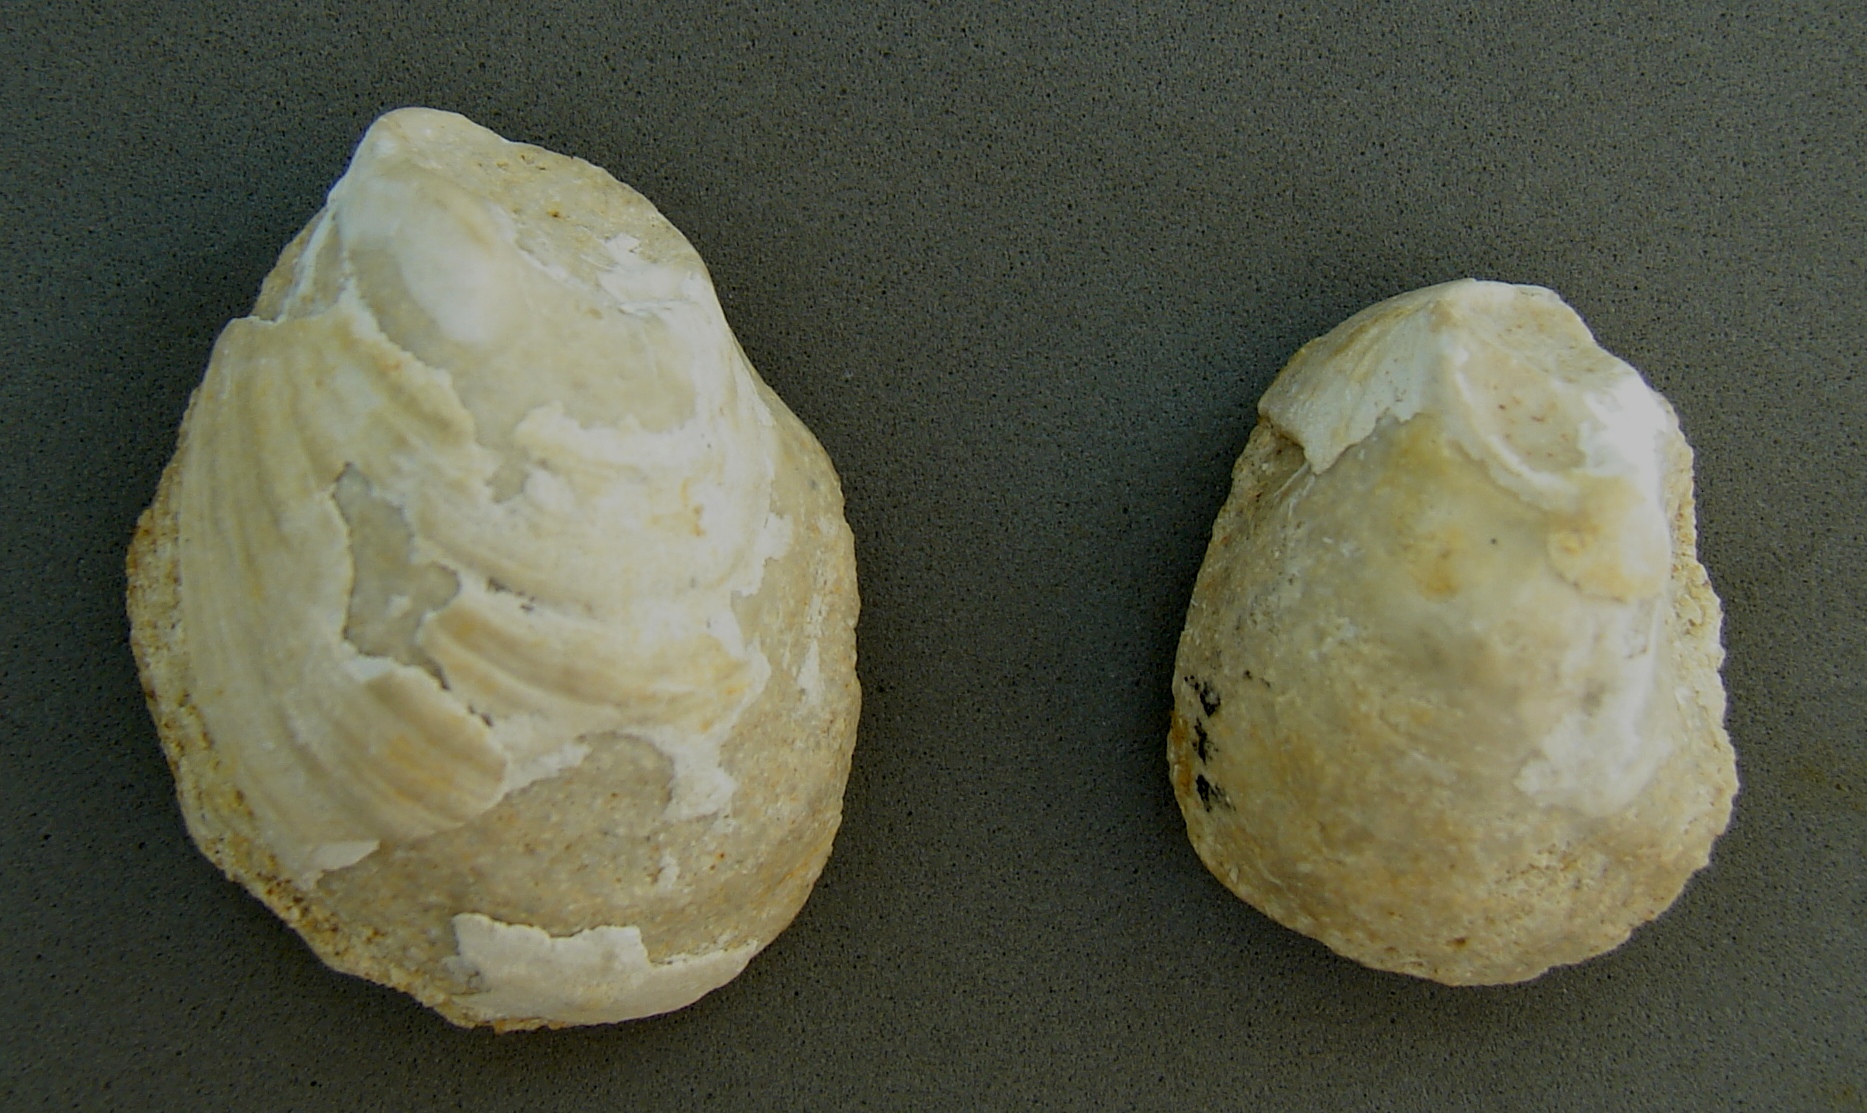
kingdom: Animalia
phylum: Mollusca
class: Bivalvia
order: Ostreida
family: Flemingostreidae
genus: Liostrea
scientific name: Liostrea hisingeri
